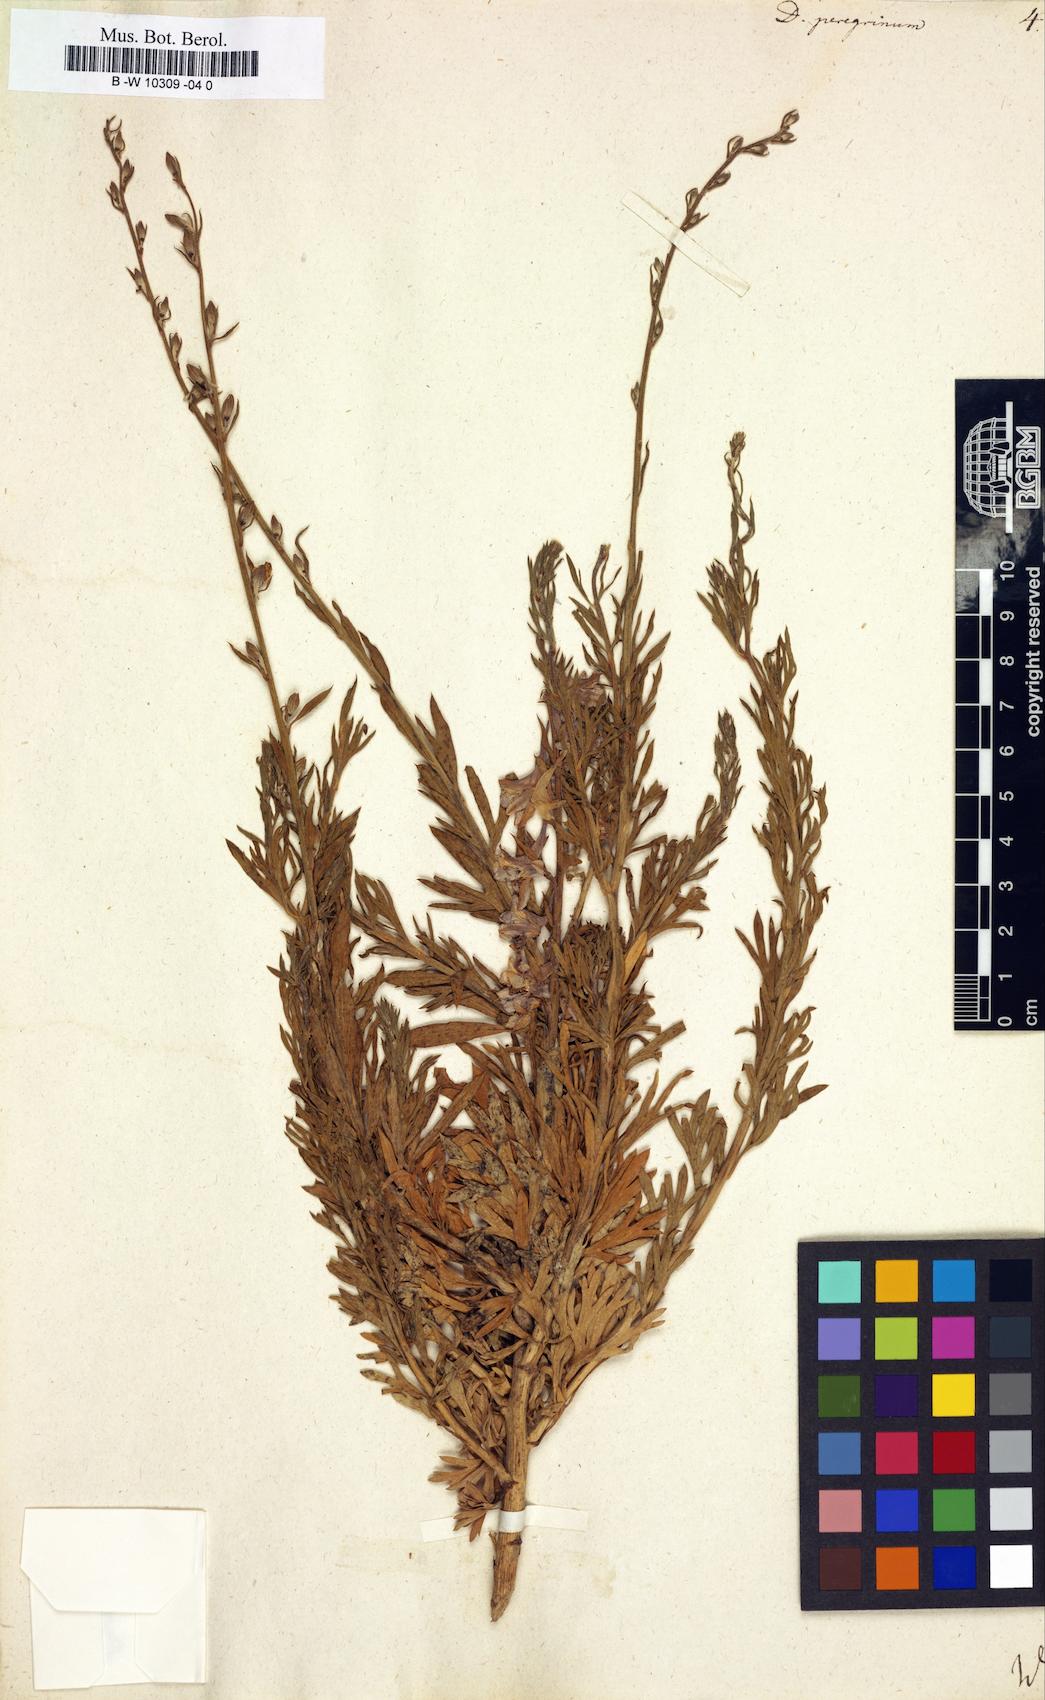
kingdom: Plantae
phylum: Tracheophyta
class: Magnoliopsida
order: Ranunculales
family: Ranunculaceae
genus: Delphinium
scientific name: Delphinium peregrinum
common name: Violet larkspur
